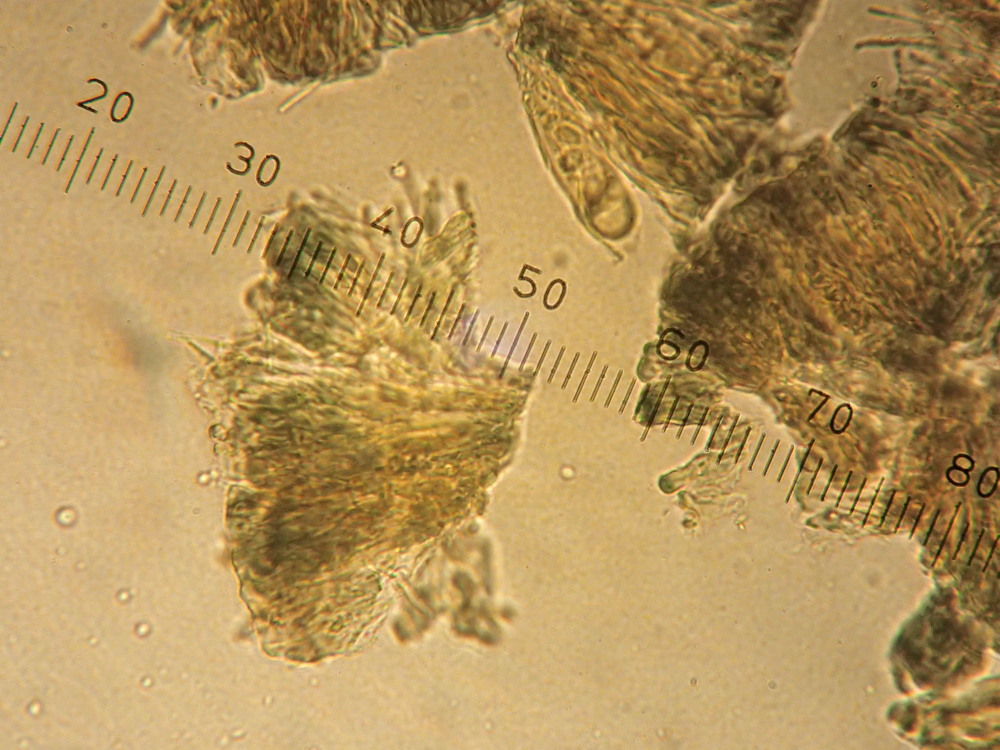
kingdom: Fungi
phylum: Ascomycota
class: Lecanoromycetes
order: Lecanorales
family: Lecanoraceae
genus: Lecidella
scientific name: Lecidella elaeochroma
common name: grågrøn skivelav
